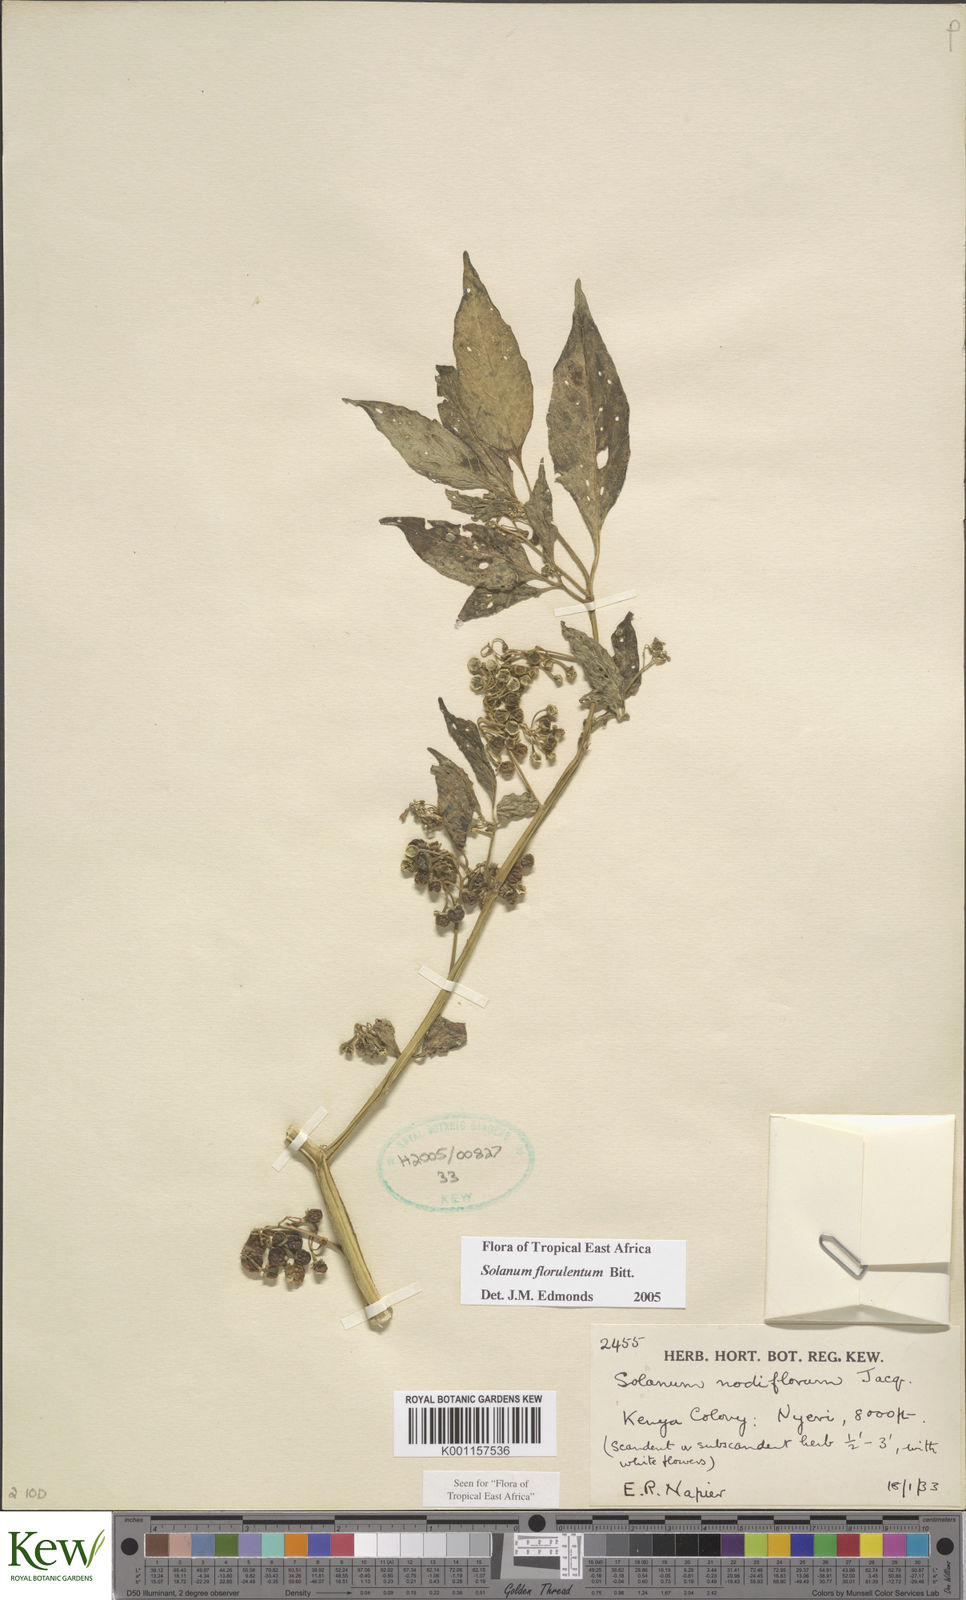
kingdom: Plantae
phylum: Tracheophyta
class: Magnoliopsida
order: Solanales
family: Solanaceae
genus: Solanum
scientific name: Solanum tarderemotum
